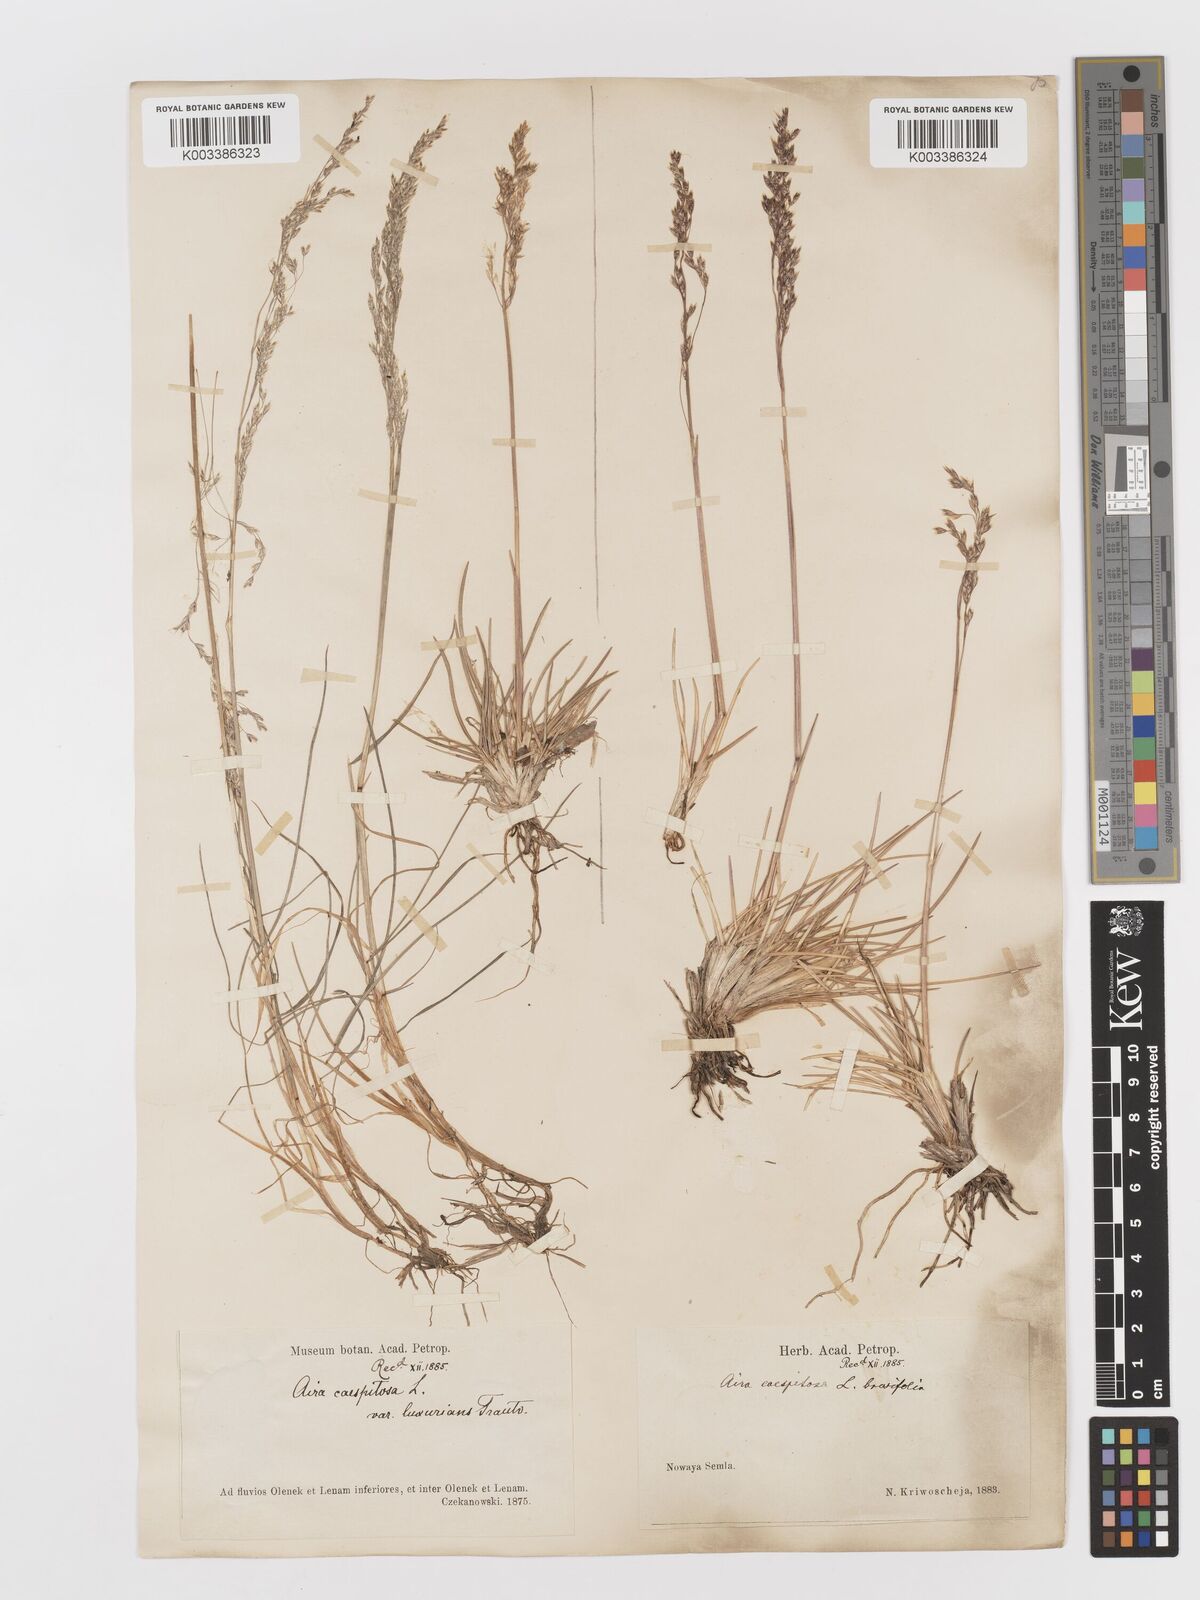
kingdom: Plantae
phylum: Tracheophyta
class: Liliopsida
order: Poales
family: Poaceae
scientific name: Poaceae
